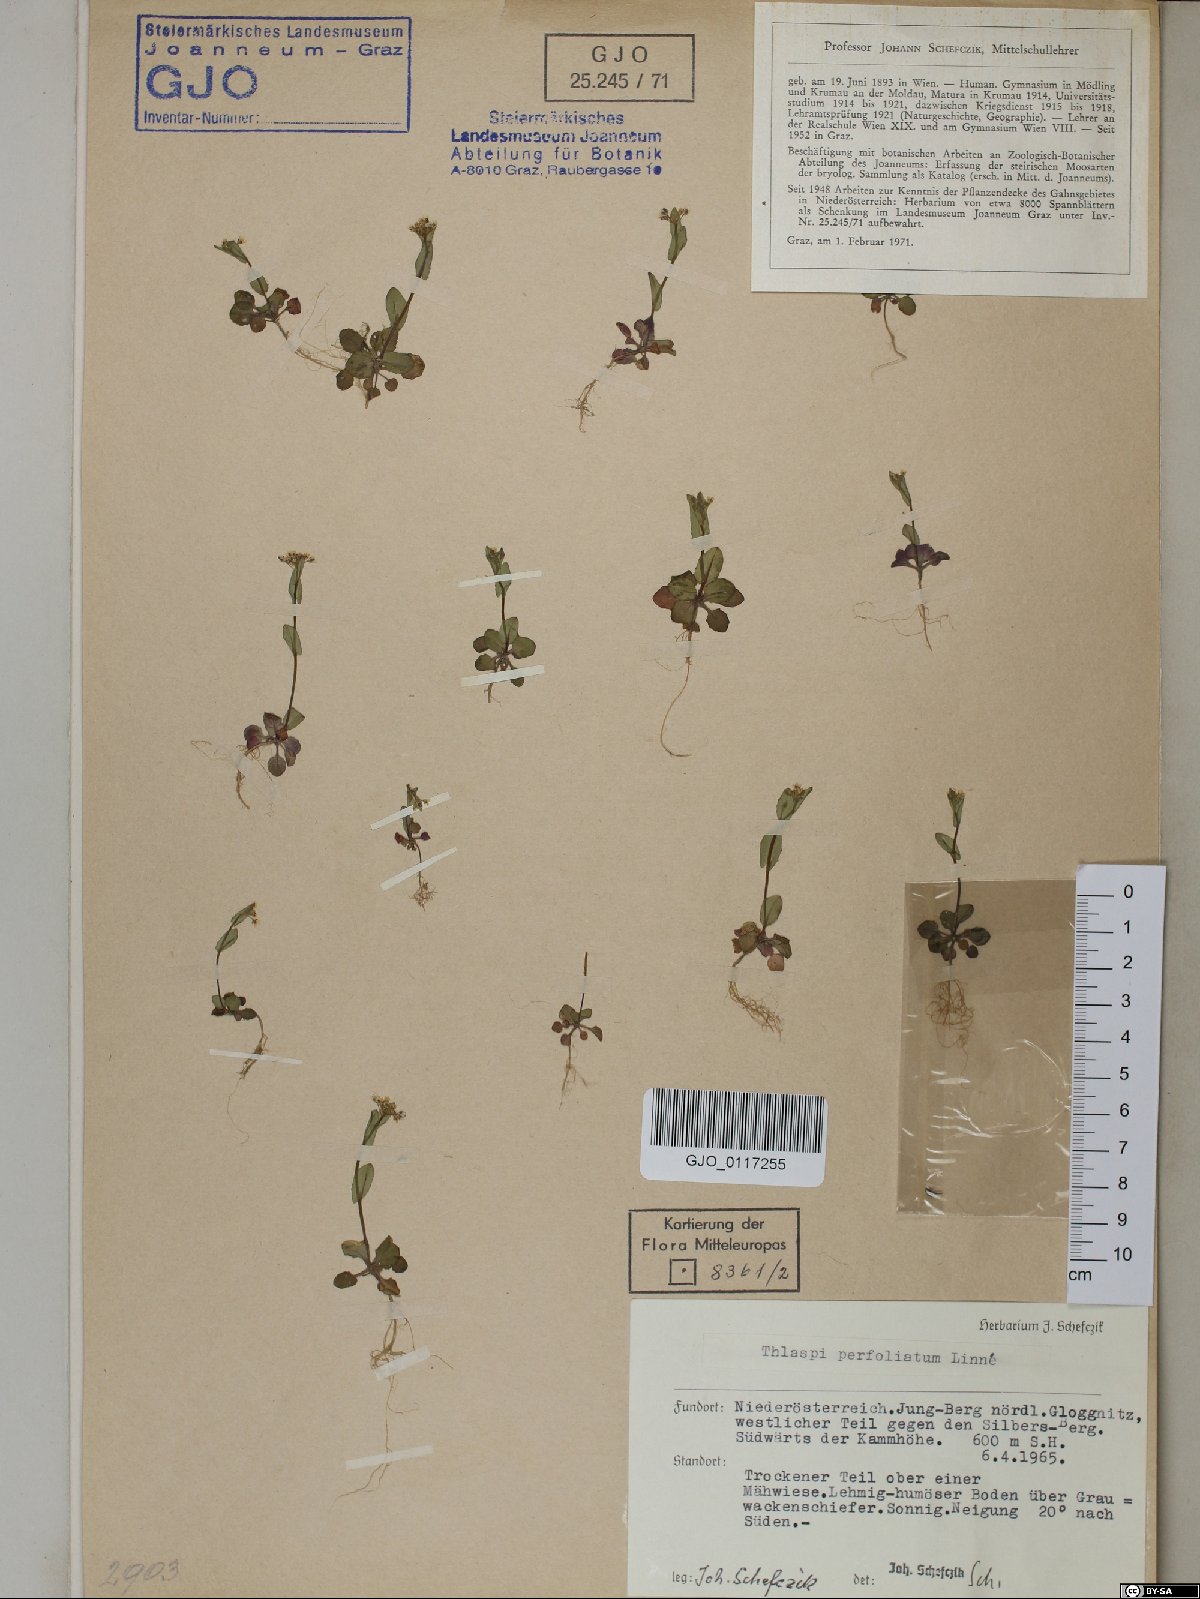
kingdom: Plantae
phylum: Tracheophyta
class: Magnoliopsida
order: Brassicales
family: Brassicaceae
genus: Noccaea
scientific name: Noccaea perfoliata
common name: Perfoliate pennycress
